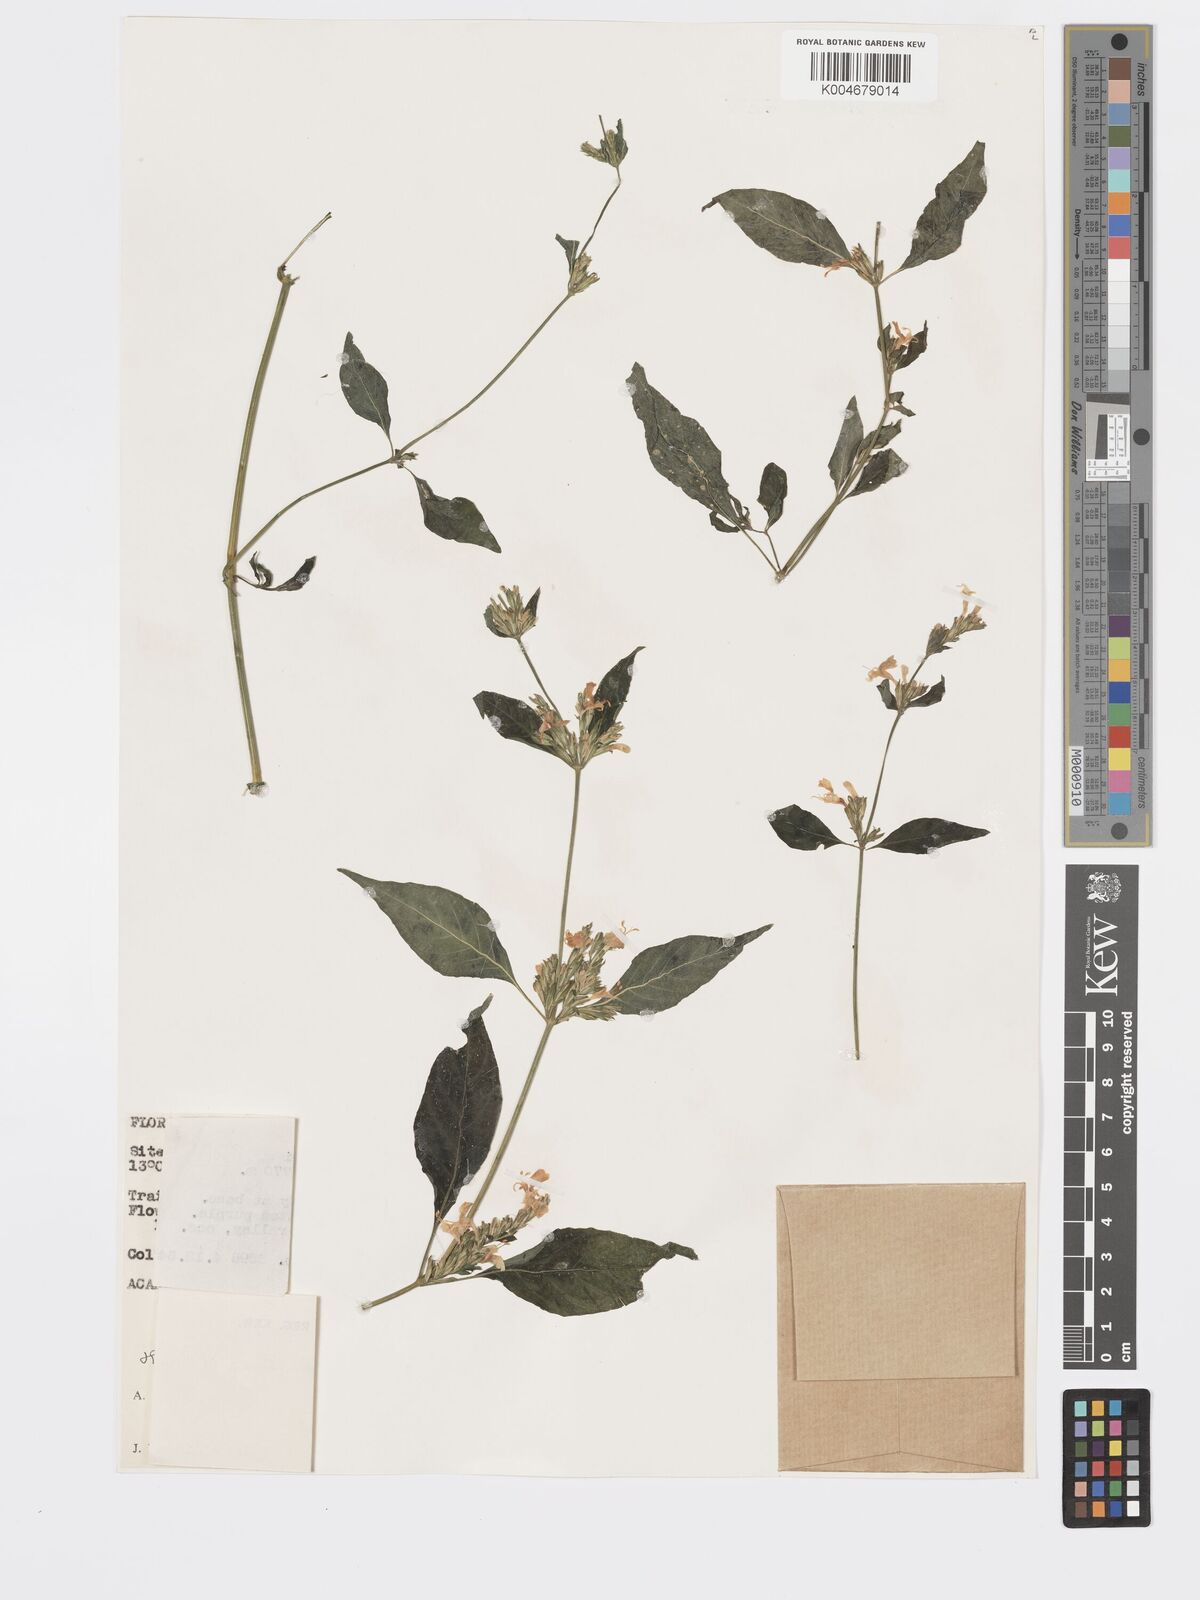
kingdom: Plantae
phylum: Tracheophyta
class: Magnoliopsida
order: Lamiales
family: Acanthaceae
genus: Hypoestes
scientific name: Hypoestes
